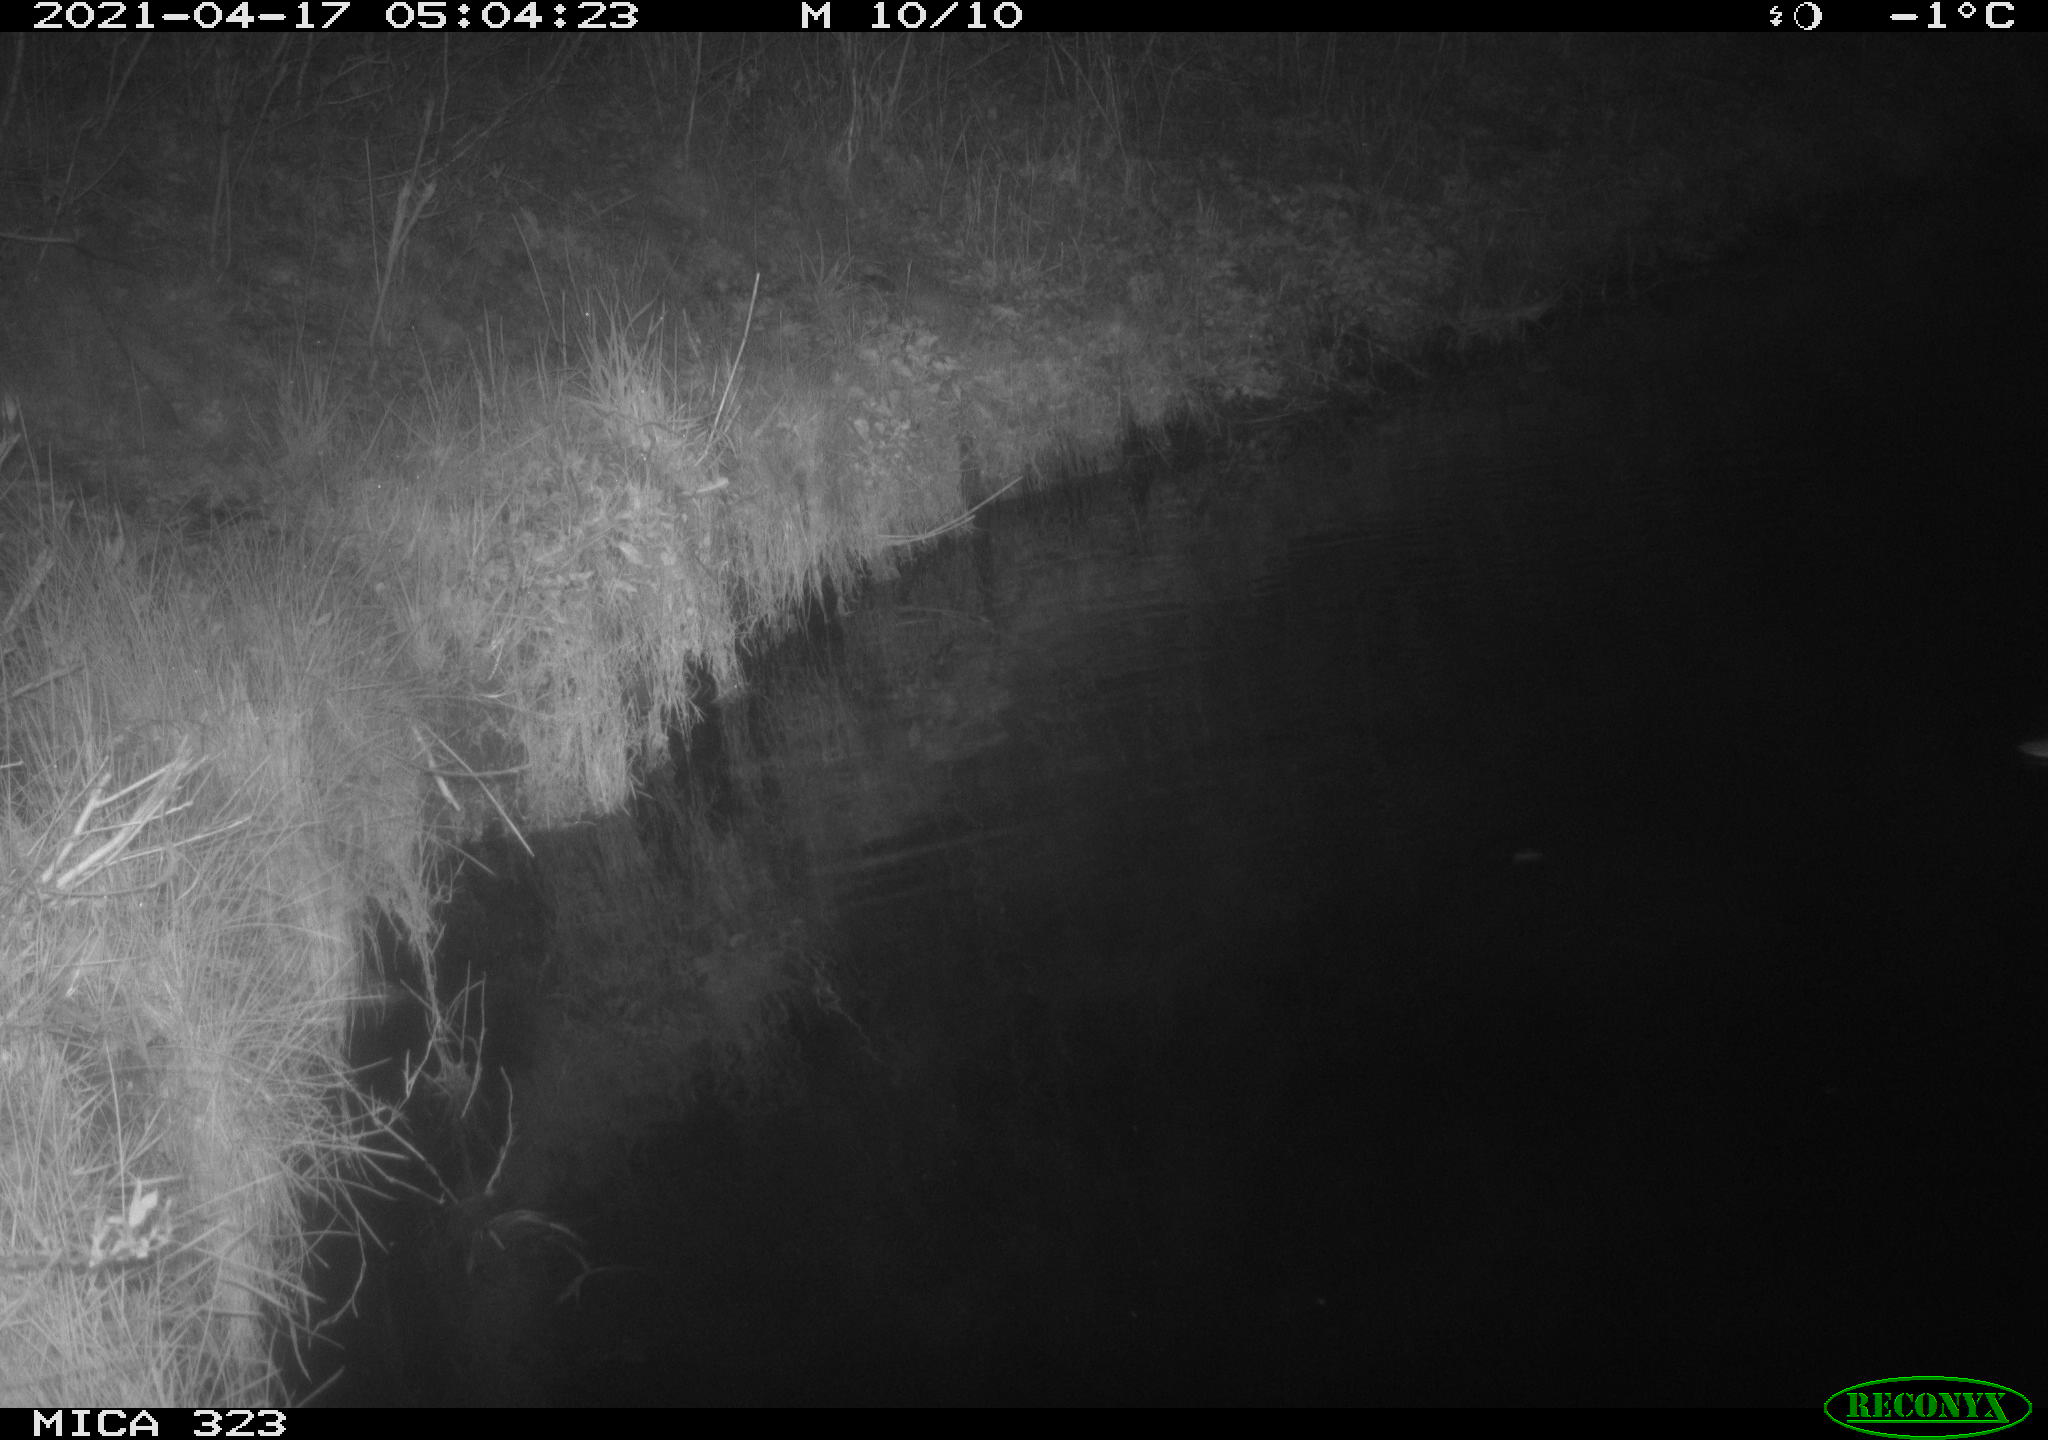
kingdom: Animalia
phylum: Chordata
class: Aves
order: Anseriformes
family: Anatidae
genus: Anas
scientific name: Anas platyrhynchos
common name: Mallard
